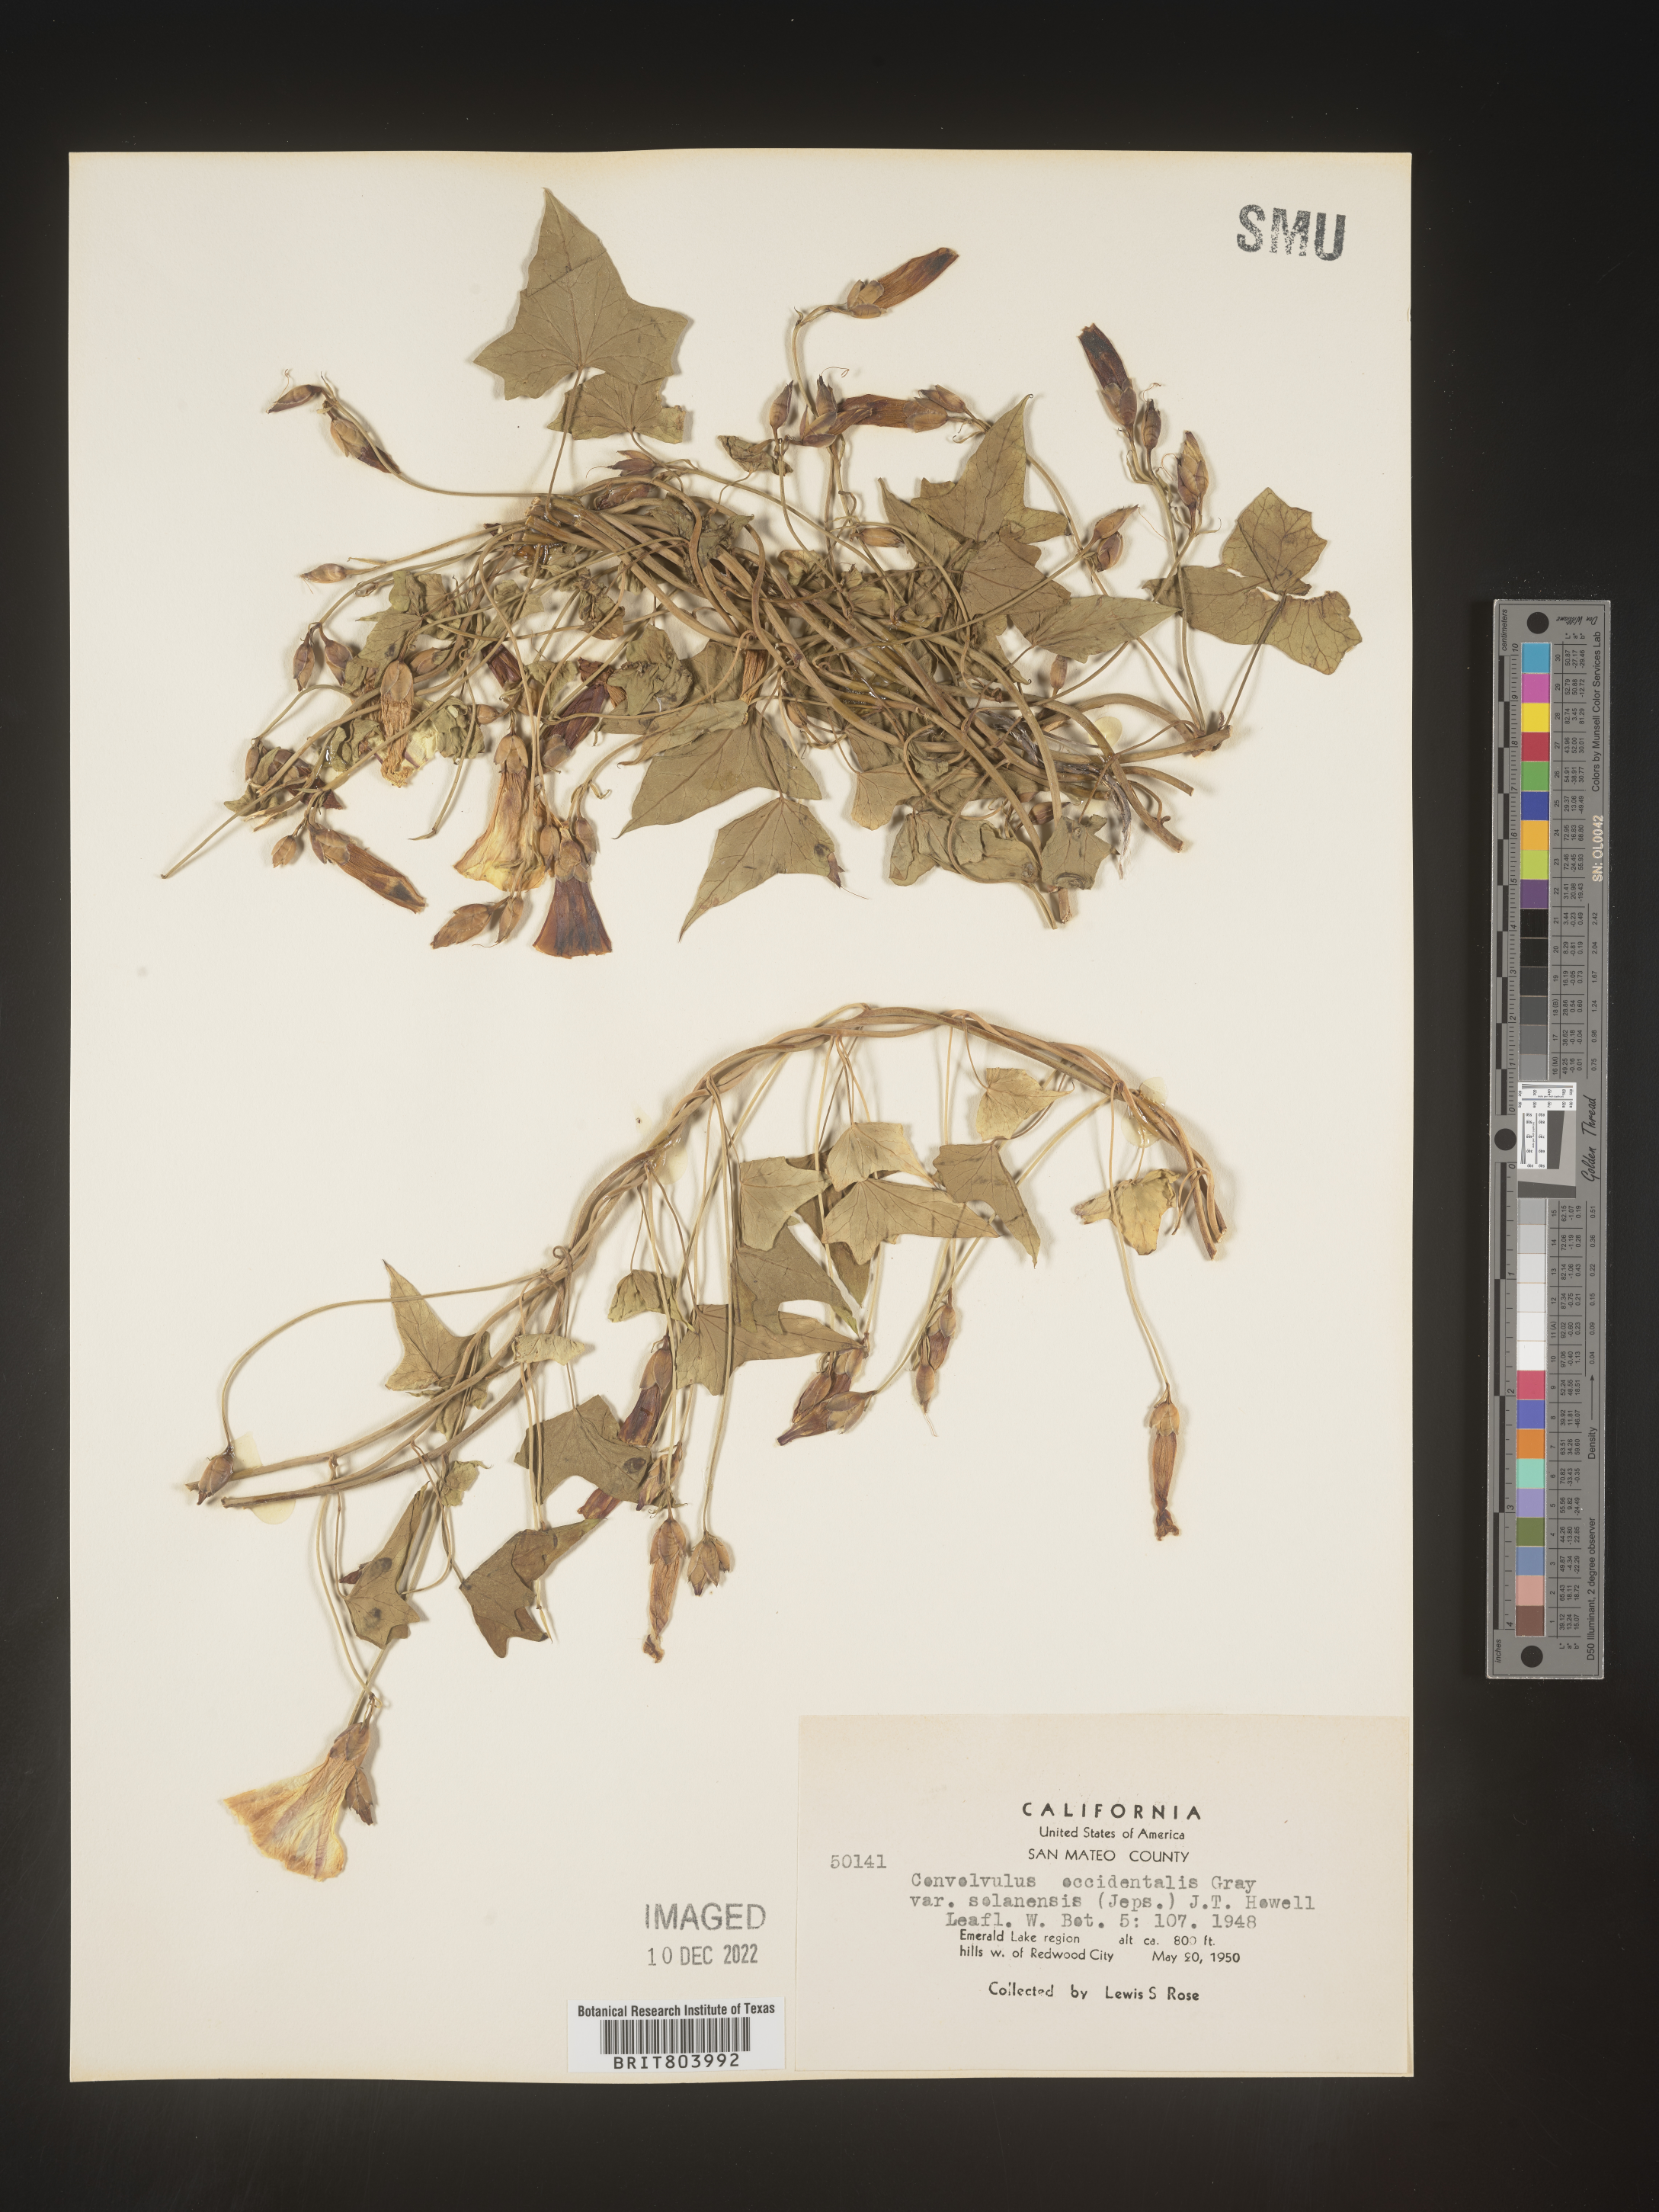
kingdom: Plantae
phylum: Tracheophyta
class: Magnoliopsida
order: Solanales
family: Convolvulaceae
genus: Calystegia
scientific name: Calystegia
